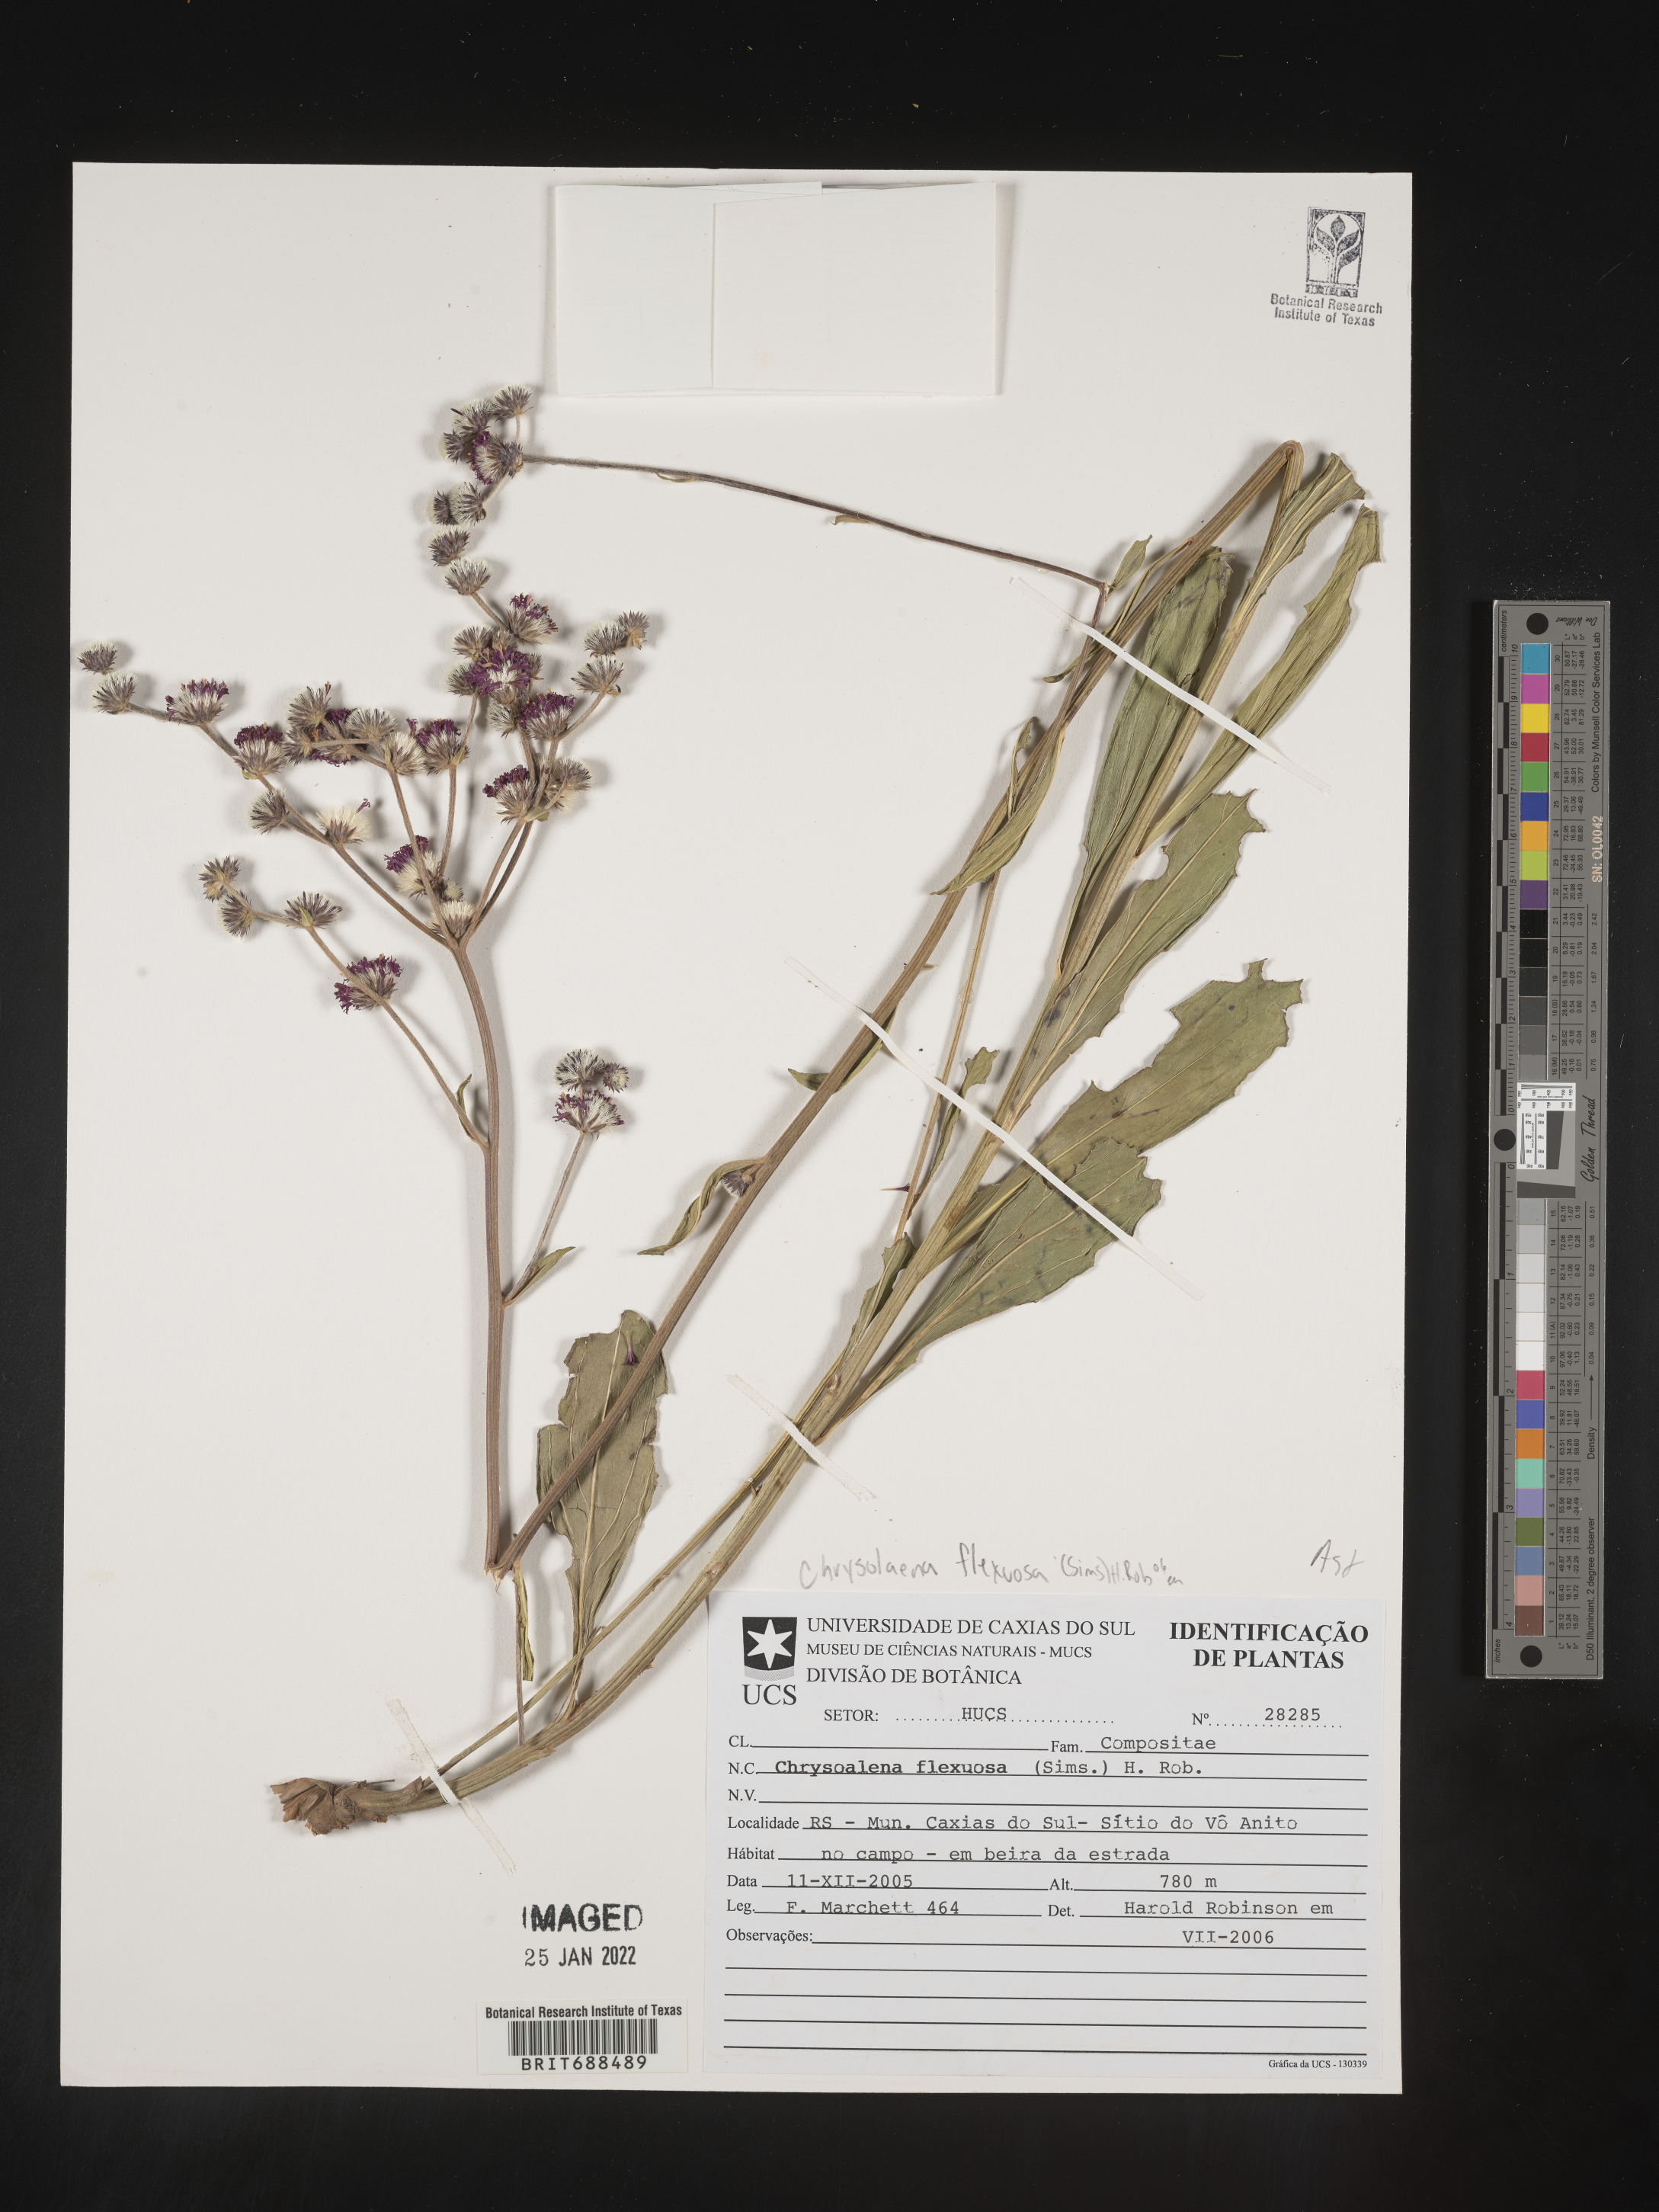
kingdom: Plantae
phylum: Tracheophyta
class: Magnoliopsida
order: Asterales
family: Asteraceae
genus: Chrysolaena
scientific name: Chrysolaena
